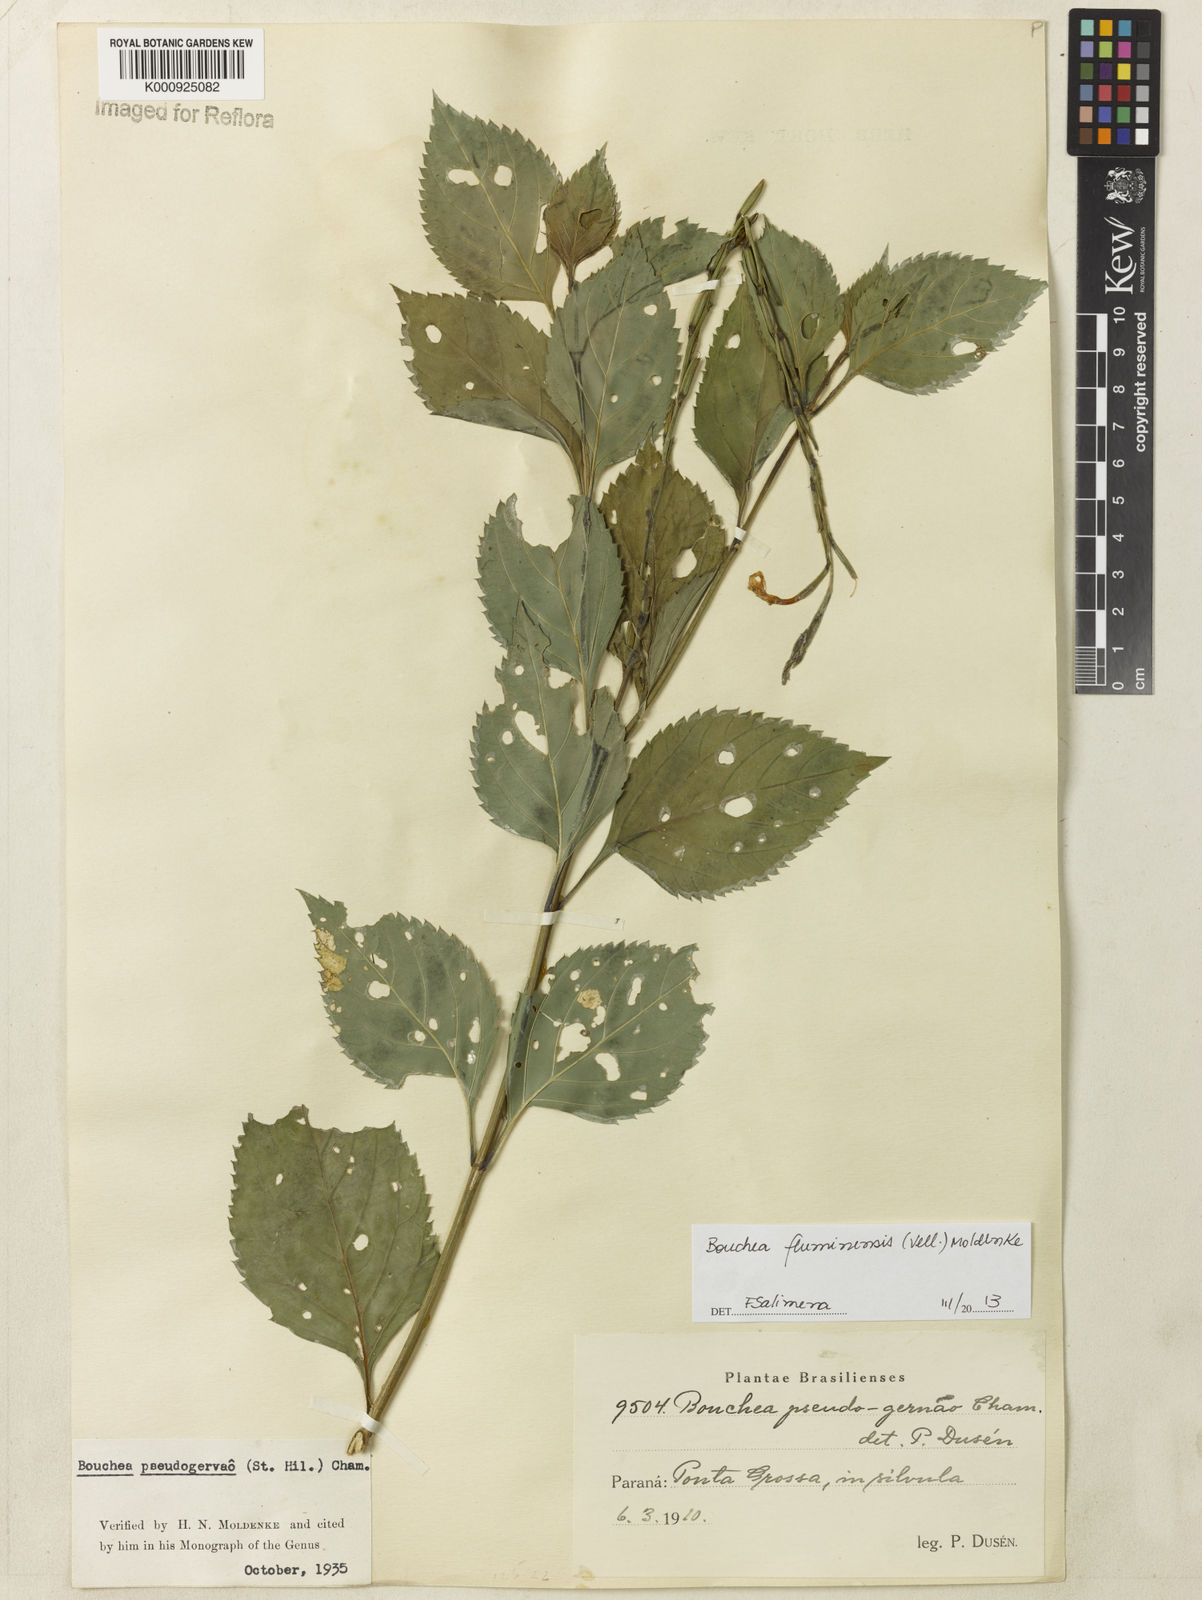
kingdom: Plantae
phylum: Tracheophyta
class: Magnoliopsida
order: Lamiales
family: Verbenaceae
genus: Bouchea
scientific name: Bouchea pseudogervao
